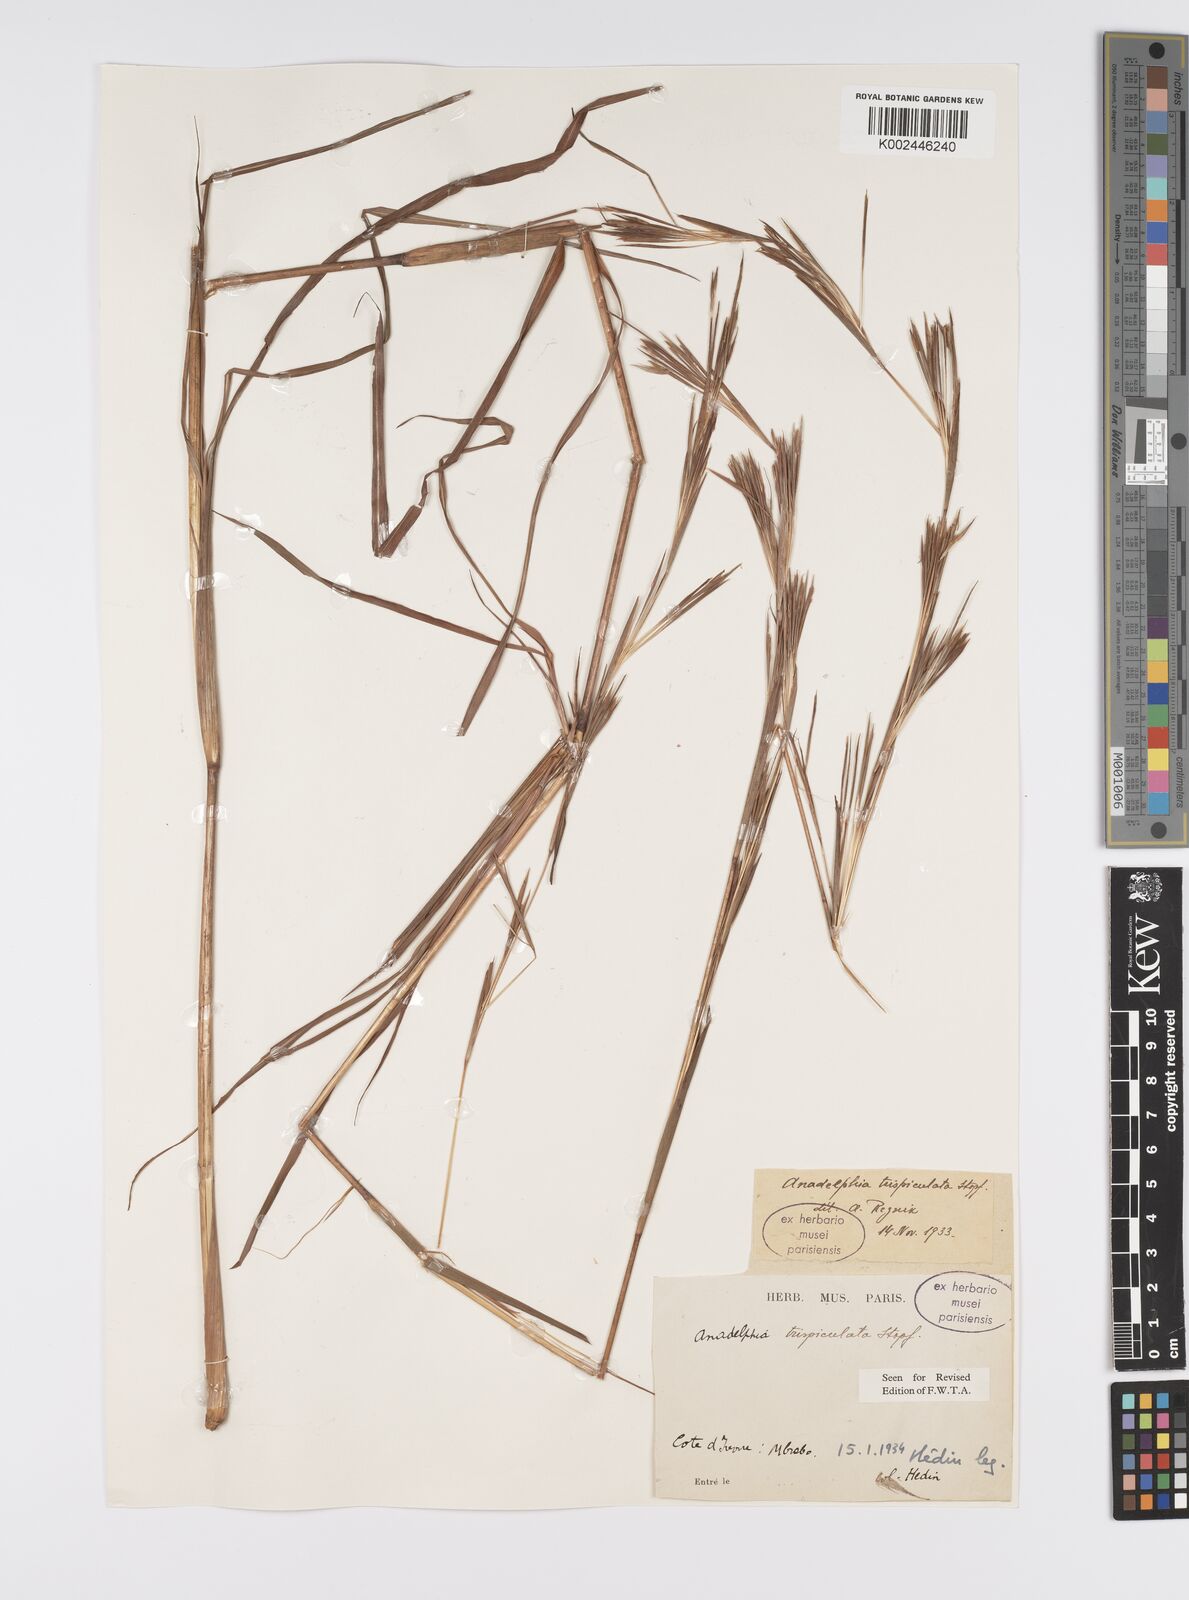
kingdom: Plantae
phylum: Tracheophyta
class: Liliopsida
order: Poales
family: Poaceae
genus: Anadelphia
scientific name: Anadelphia trispiculata
